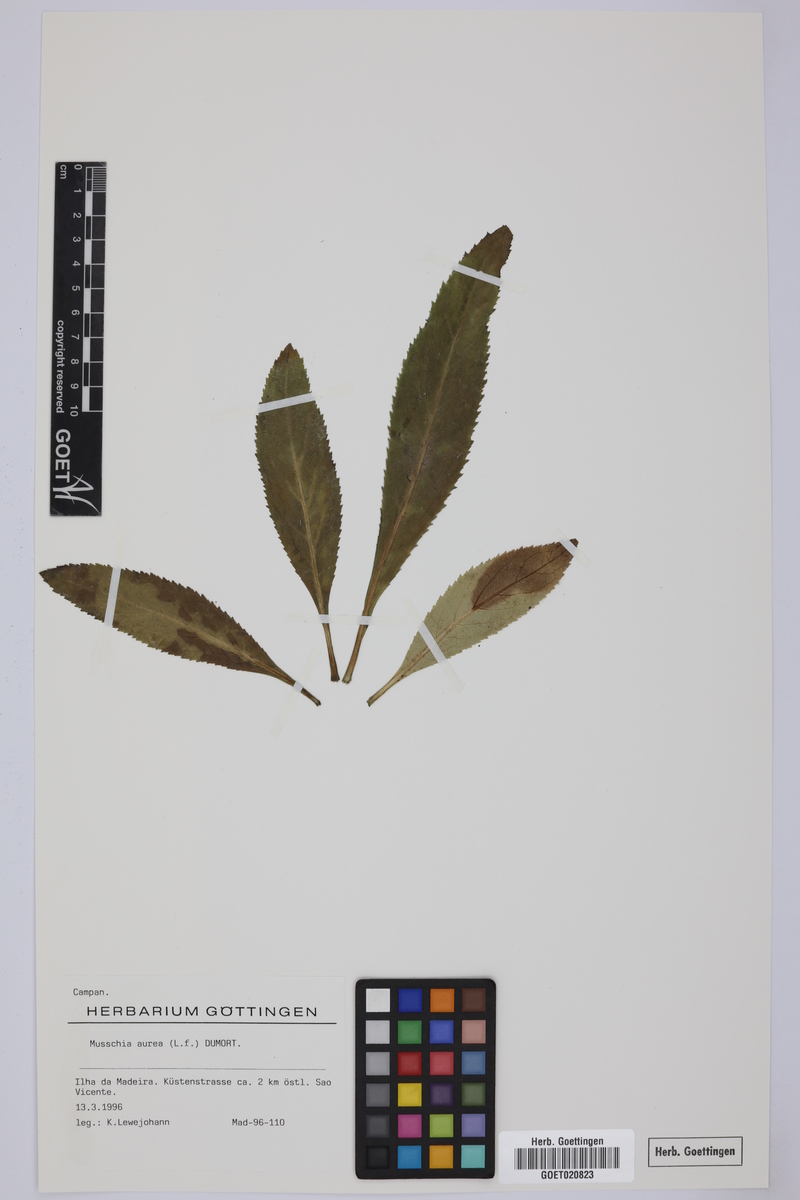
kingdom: Plantae
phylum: Tracheophyta
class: Magnoliopsida
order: Asterales
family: Campanulaceae
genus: Musschia
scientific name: Musschia aurea
